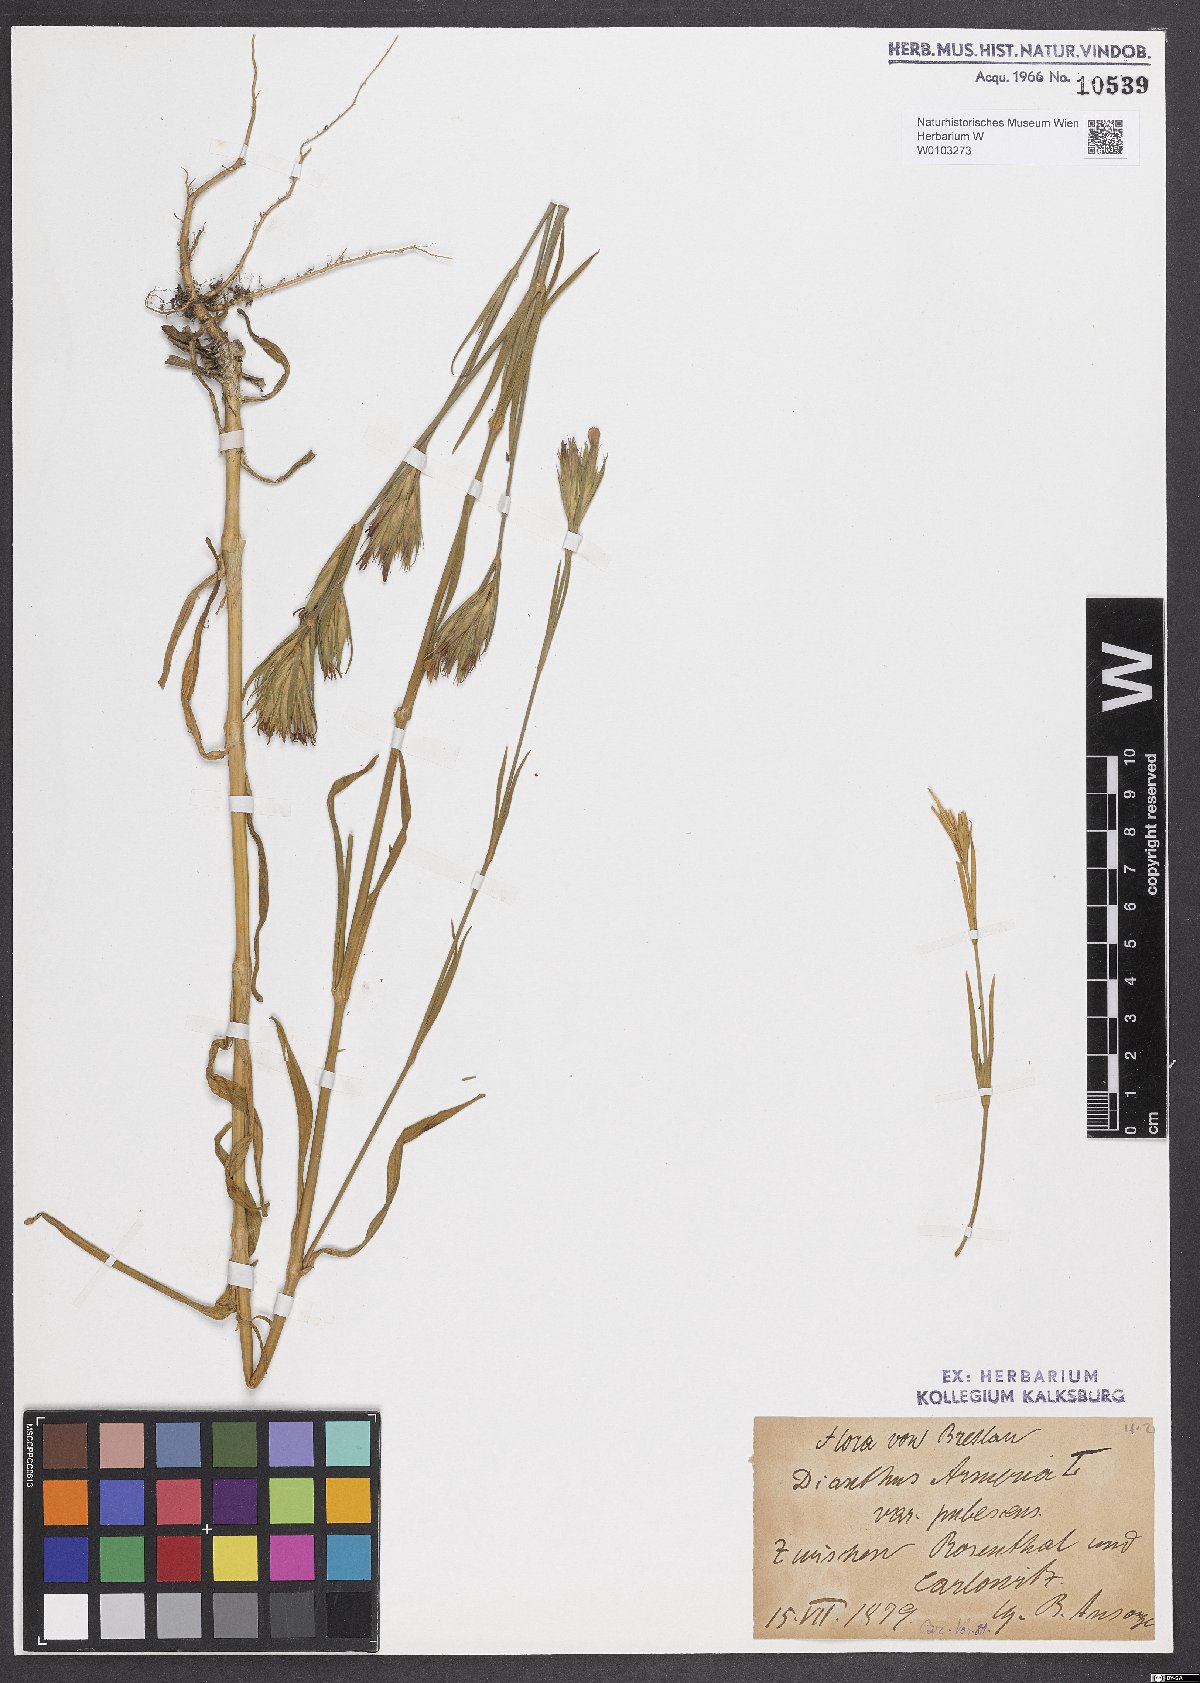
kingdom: Plantae
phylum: Tracheophyta
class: Magnoliopsida
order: Caryophyllales
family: Caryophyllaceae
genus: Dianthus
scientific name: Dianthus armeria
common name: Deptford pink
